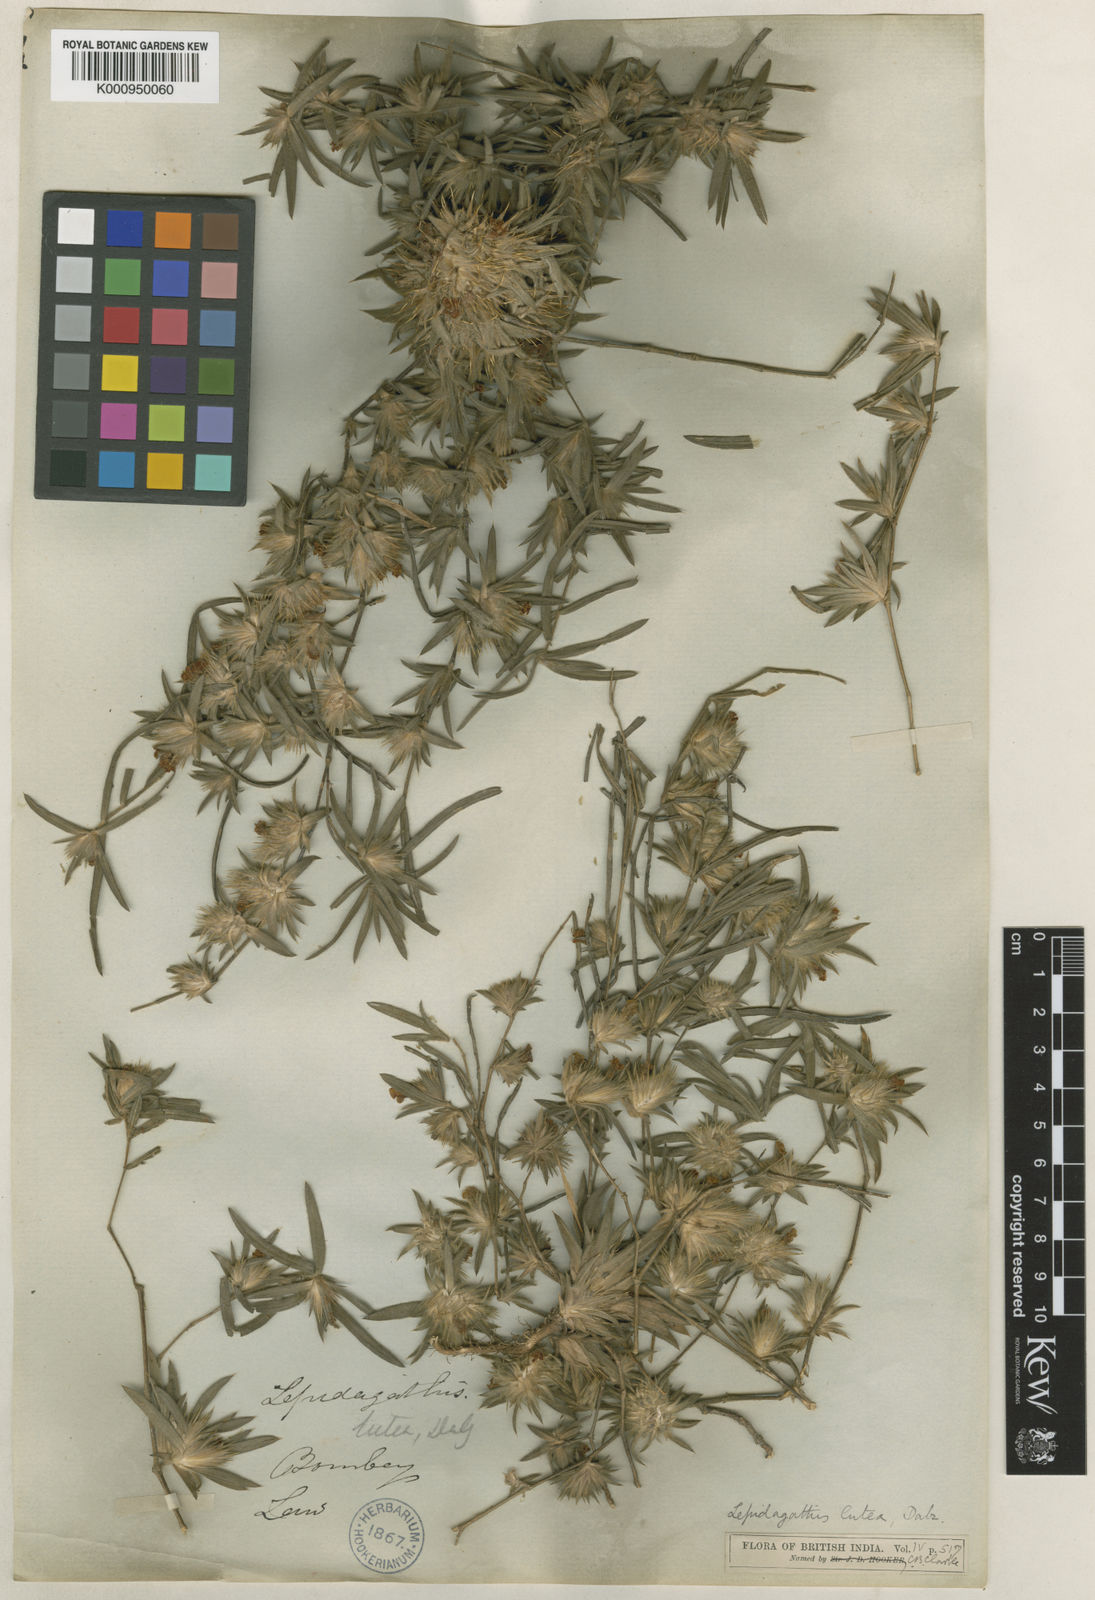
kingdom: Plantae
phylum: Tracheophyta
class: Magnoliopsida
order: Lamiales
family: Acanthaceae
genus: Lepidagathis
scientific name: Lepidagathis lutea
